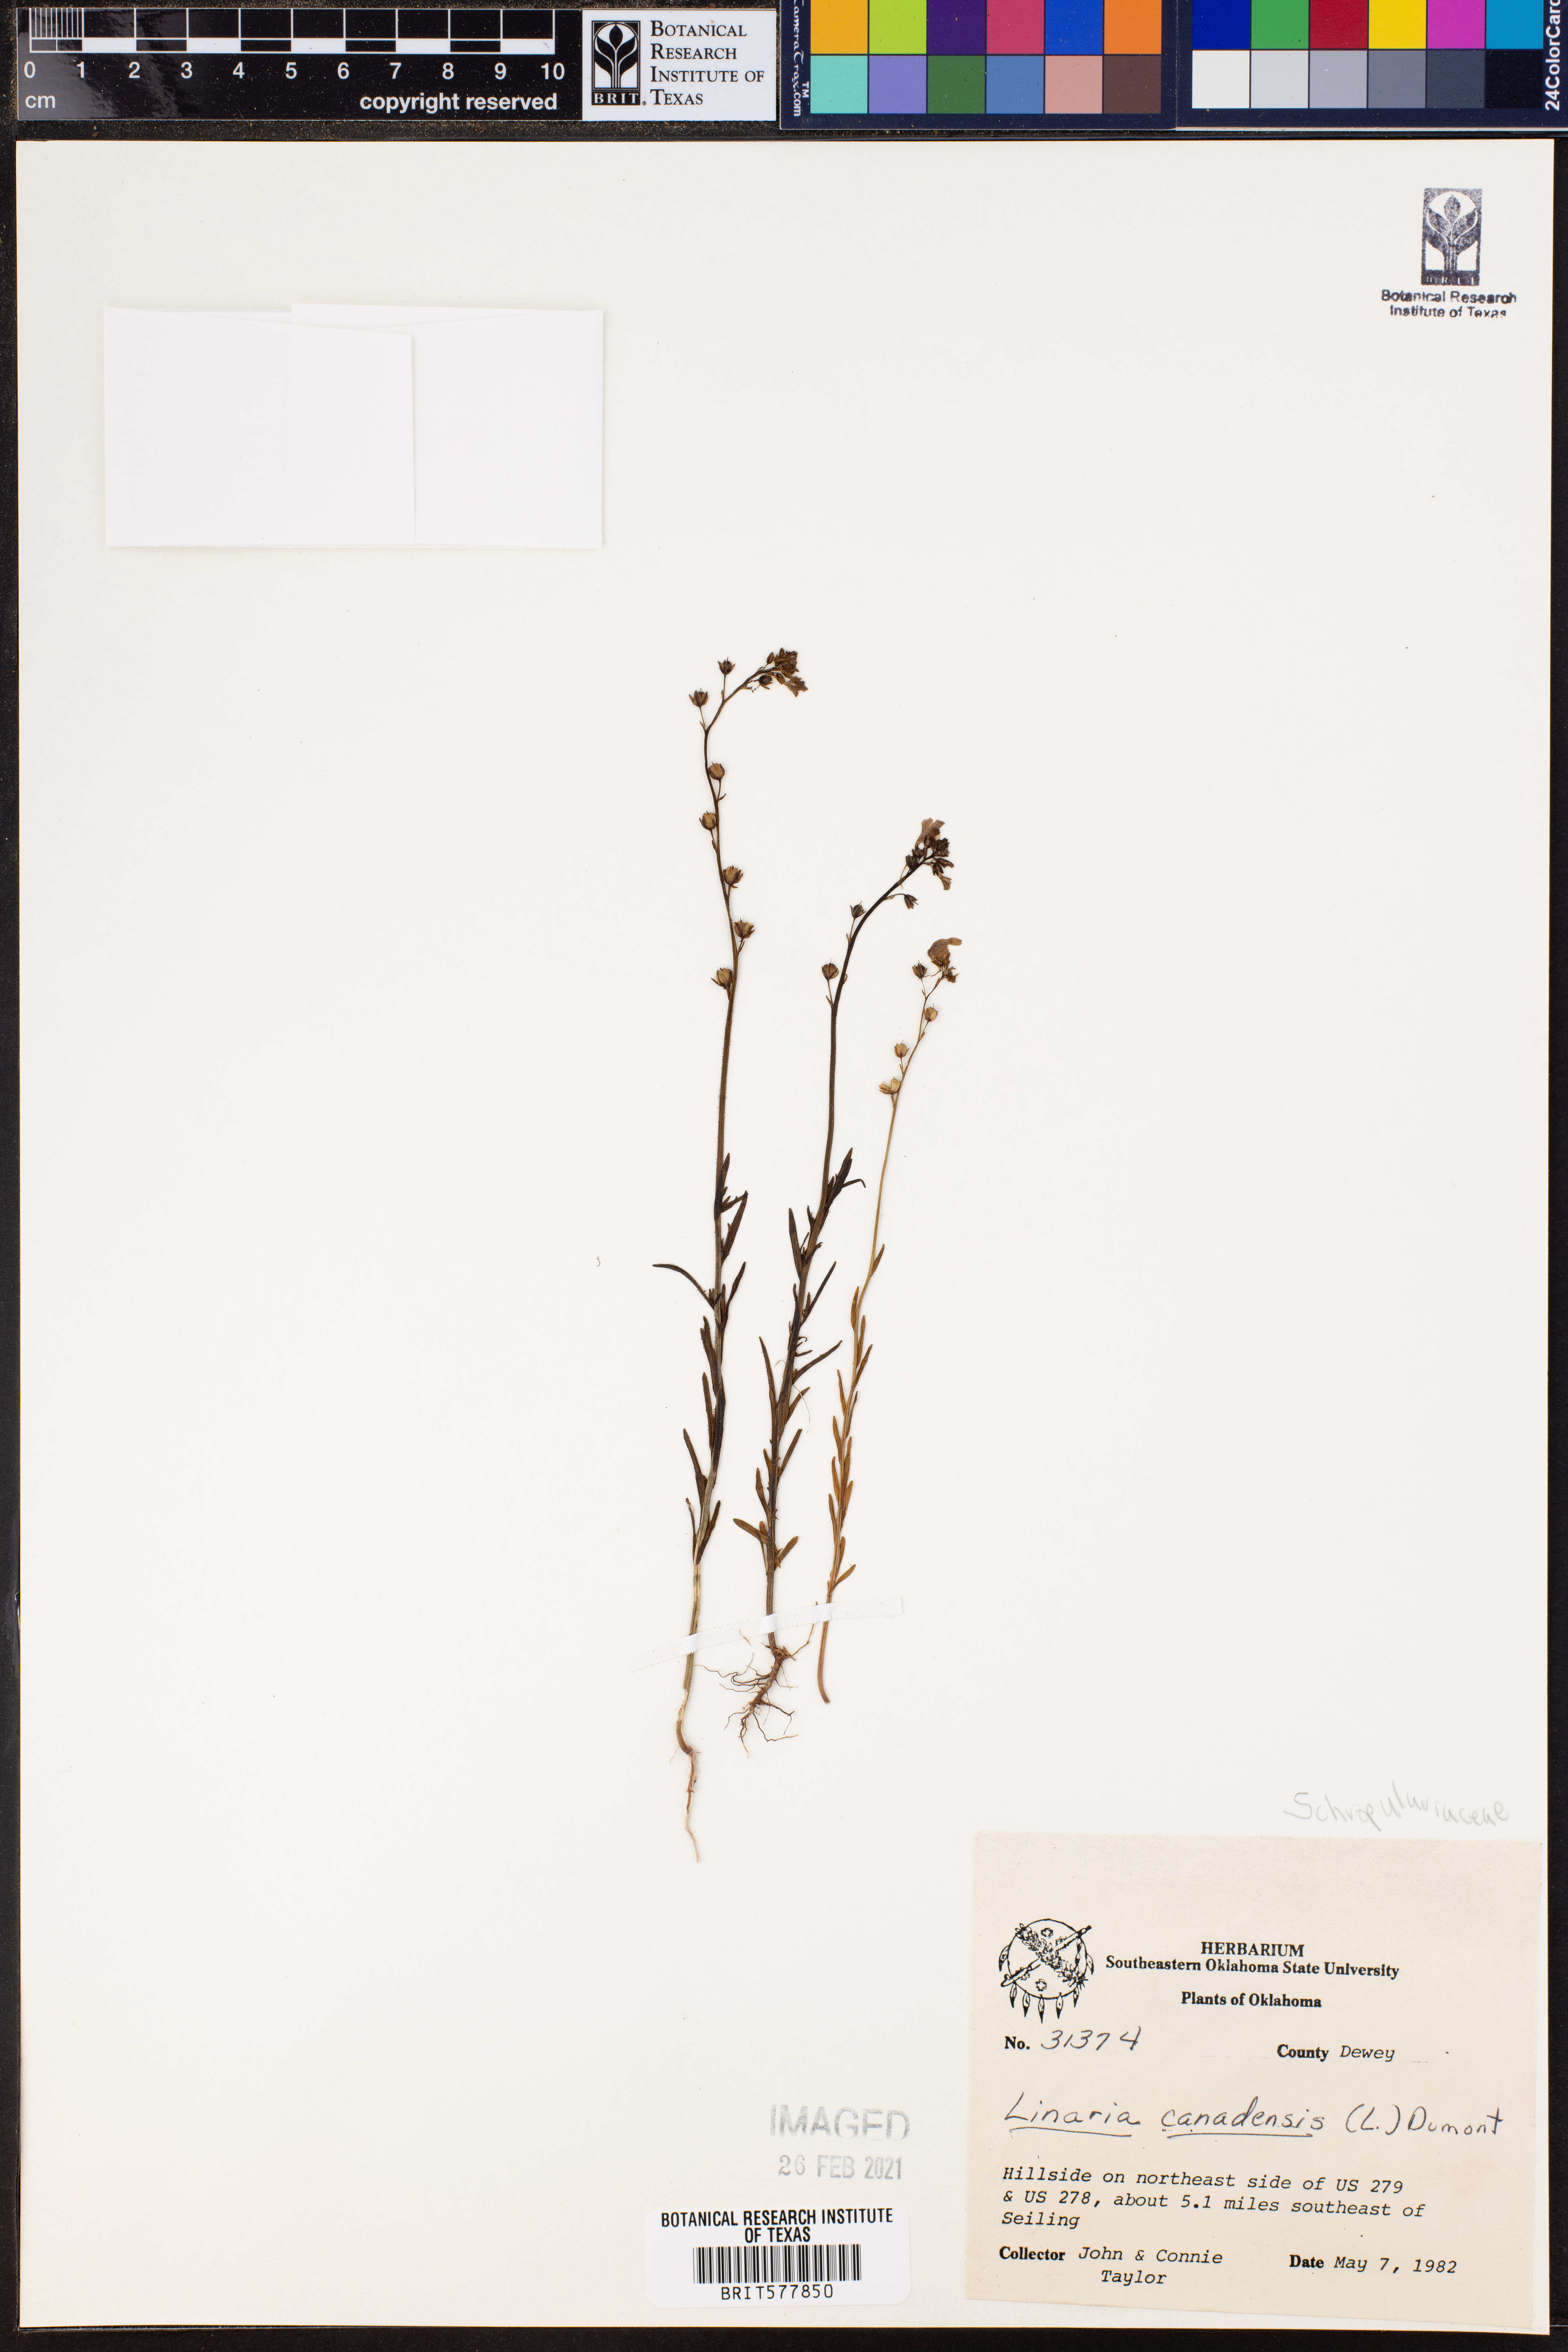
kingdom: Plantae
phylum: Tracheophyta
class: Magnoliopsida
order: Lamiales
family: Plantaginaceae
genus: Nuttallanthus
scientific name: Nuttallanthus canadensis
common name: Blue toadflax
